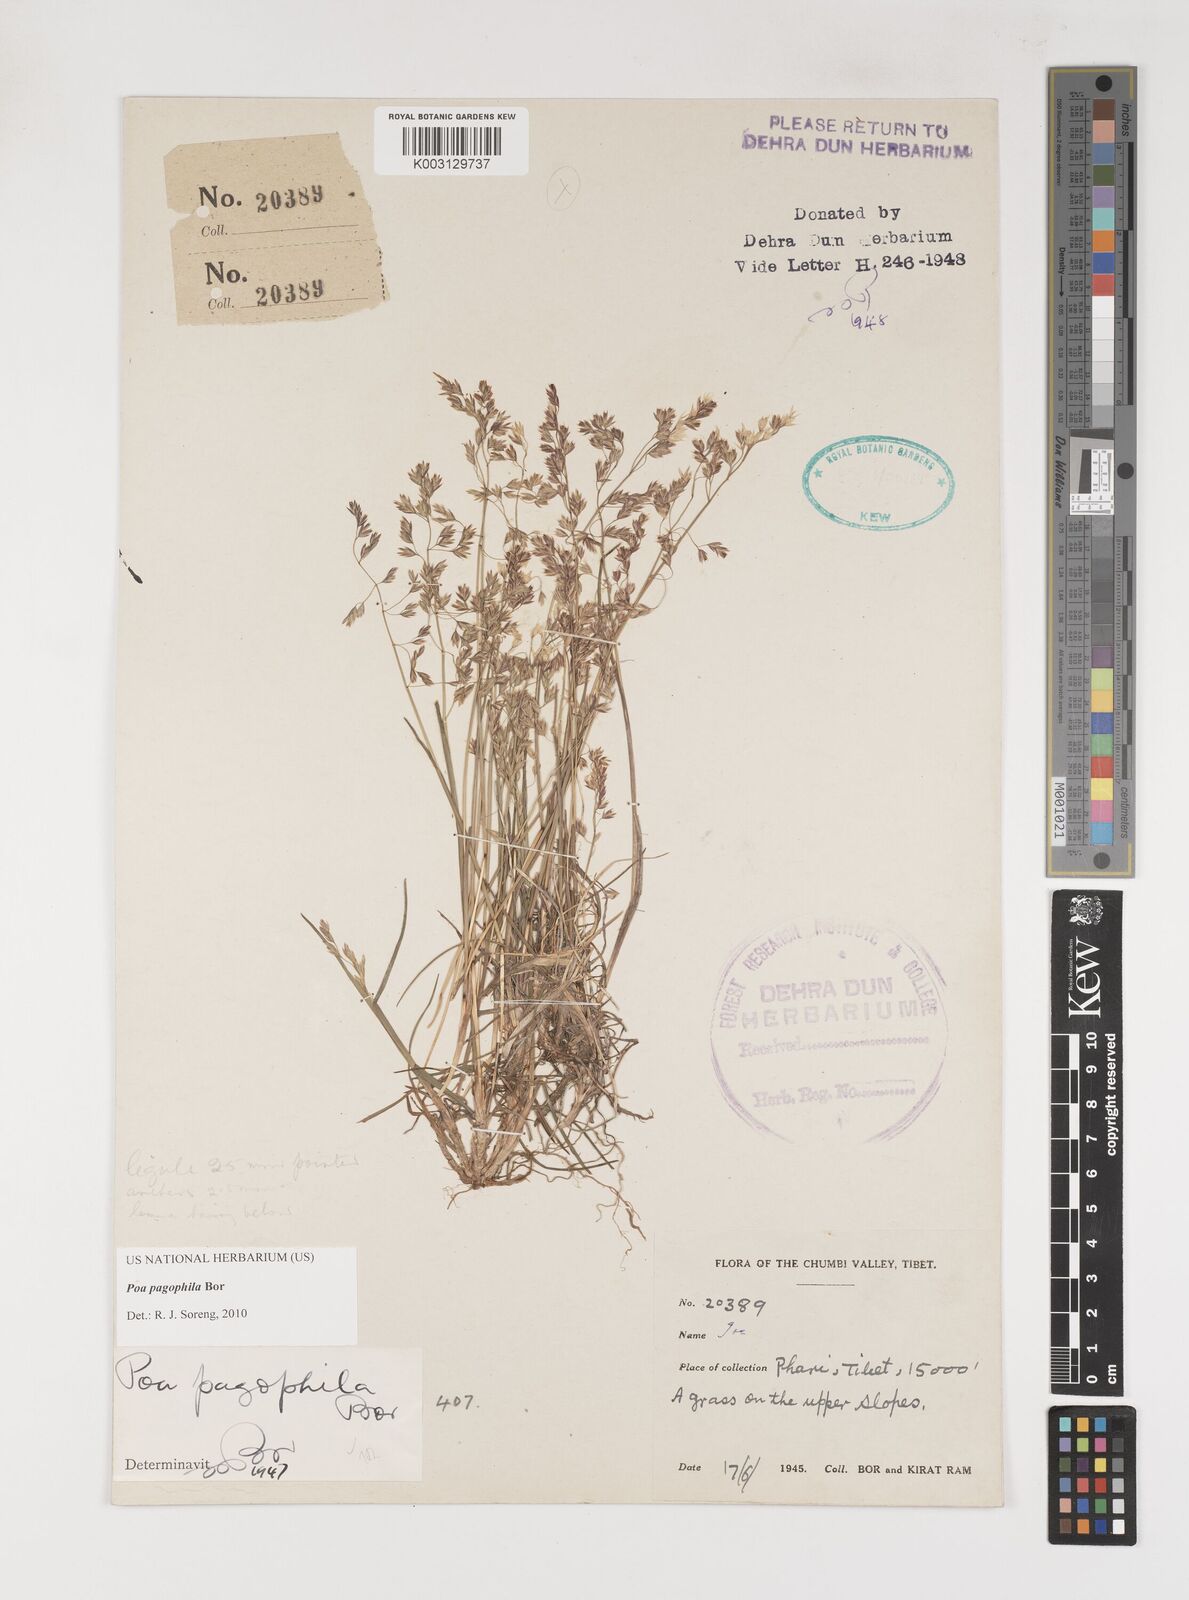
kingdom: Plantae
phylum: Tracheophyta
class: Liliopsida
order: Poales
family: Poaceae
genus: Poa
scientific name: Poa pagophila
